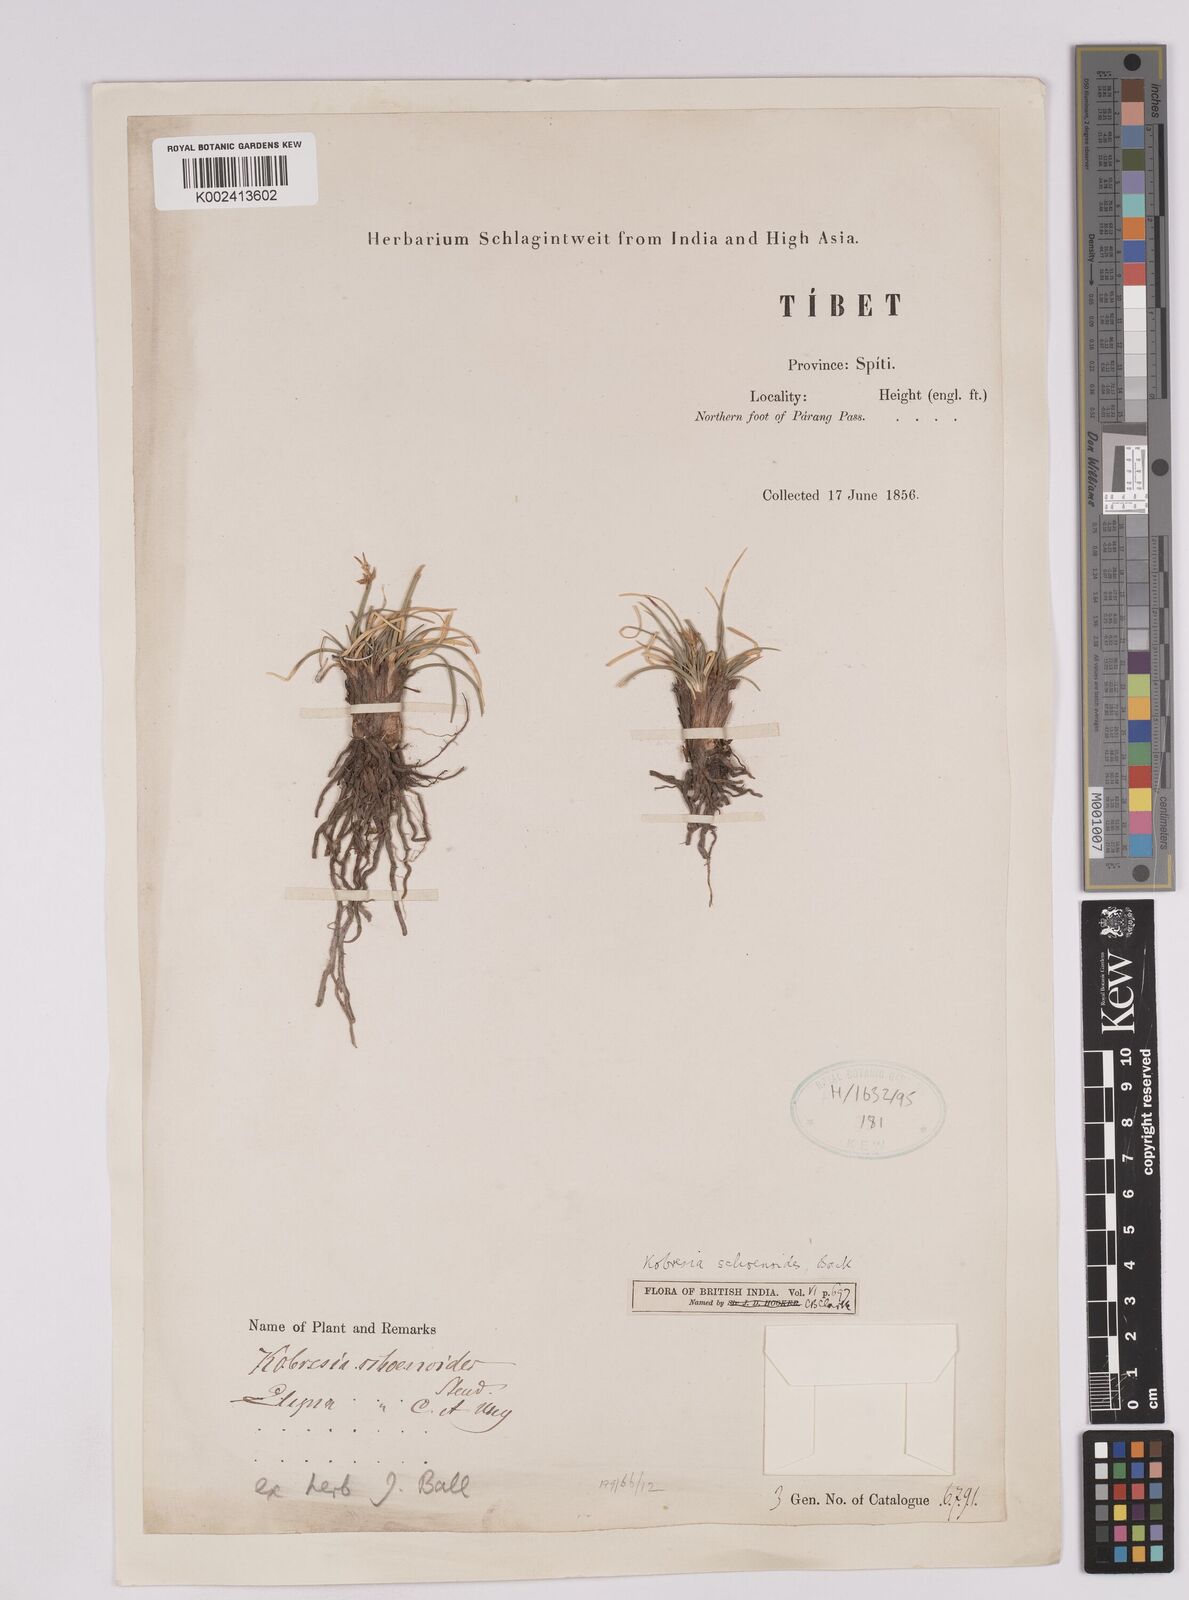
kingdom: Plantae
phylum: Tracheophyta
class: Liliopsida
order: Poales
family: Cyperaceae
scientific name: Cyperaceae
